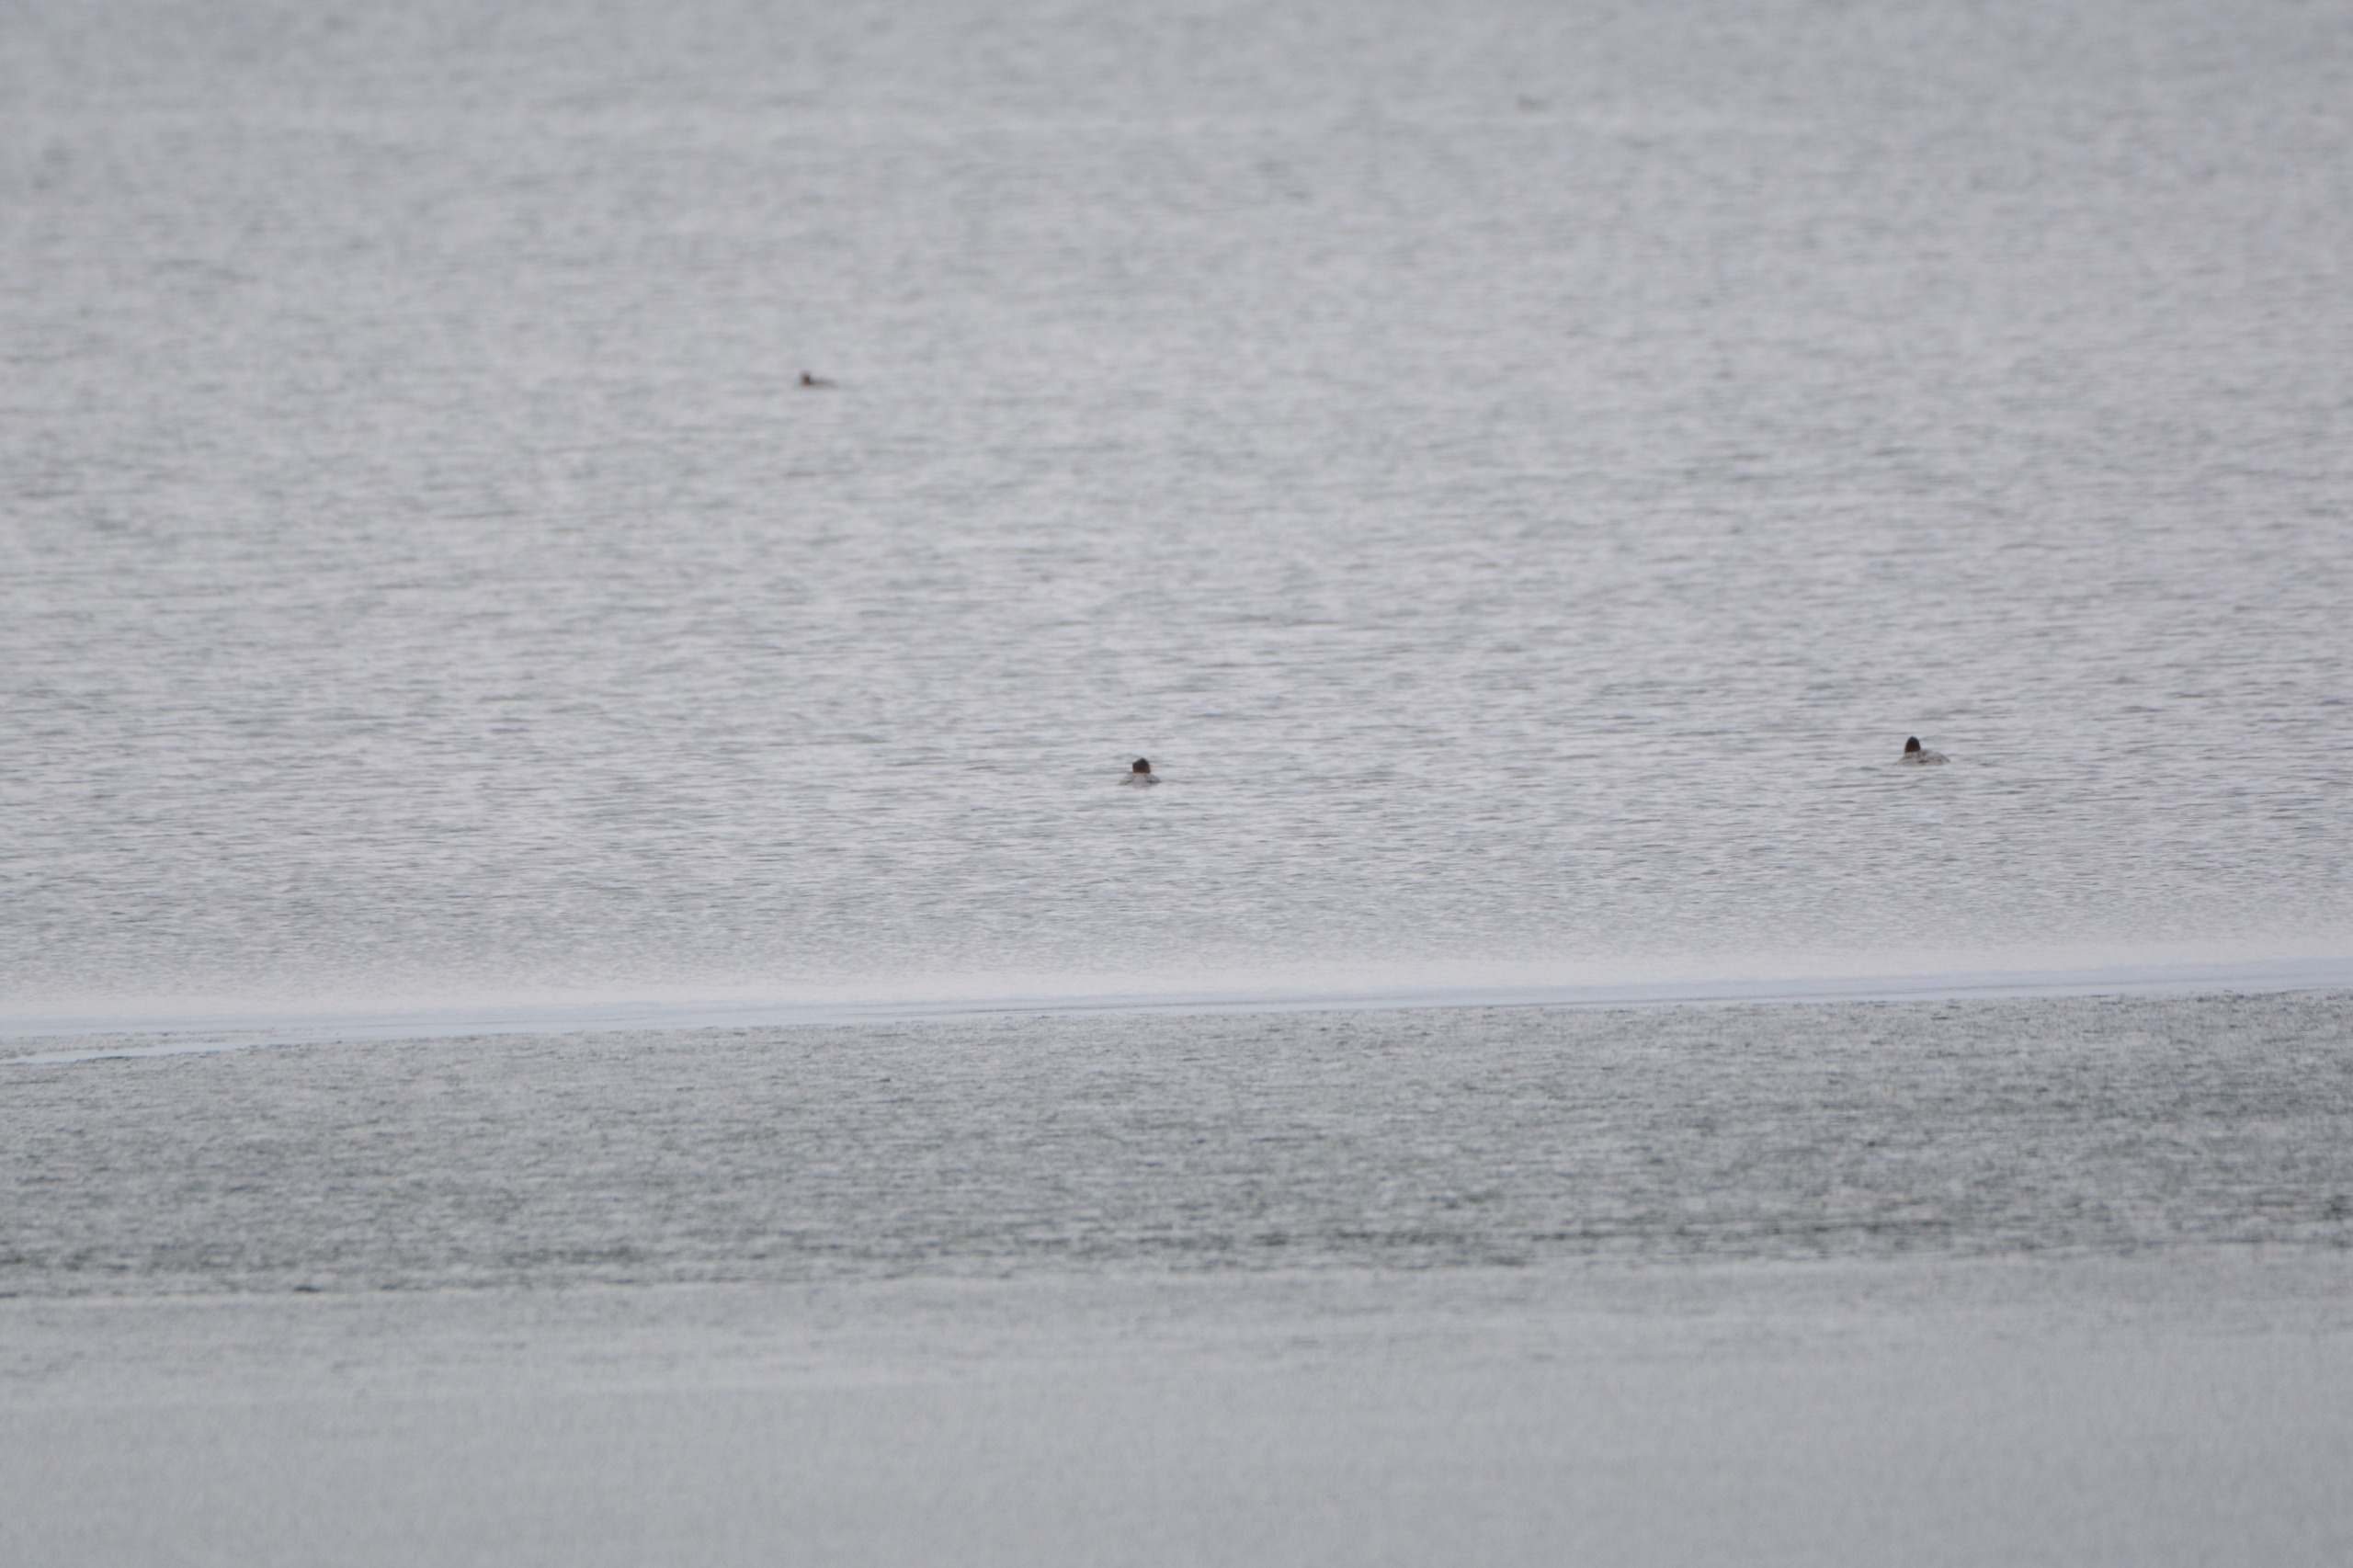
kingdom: Animalia
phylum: Chordata
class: Aves
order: Anseriformes
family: Anatidae
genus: Mergus
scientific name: Mergus merganser
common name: Stor skallesluger
